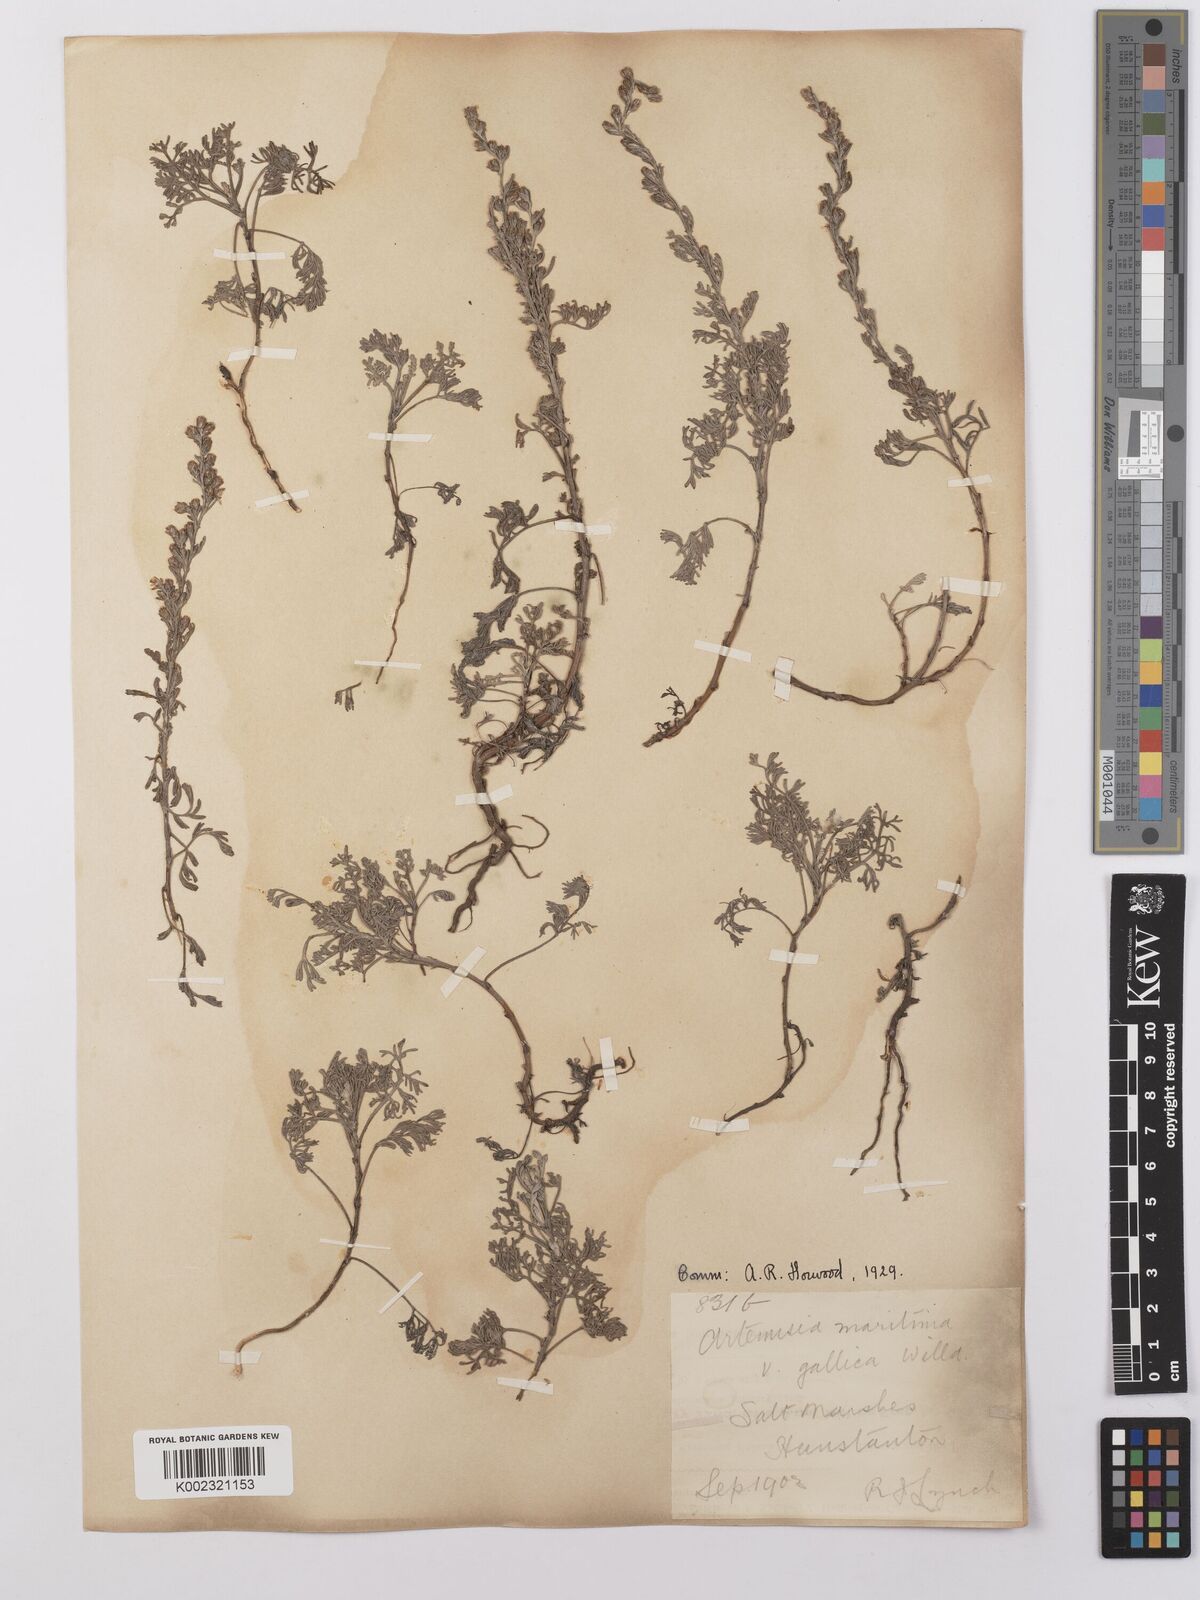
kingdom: Plantae
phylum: Tracheophyta
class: Magnoliopsida
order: Asterales
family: Asteraceae
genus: Artemisia
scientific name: Artemisia maritima
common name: Wormseed
